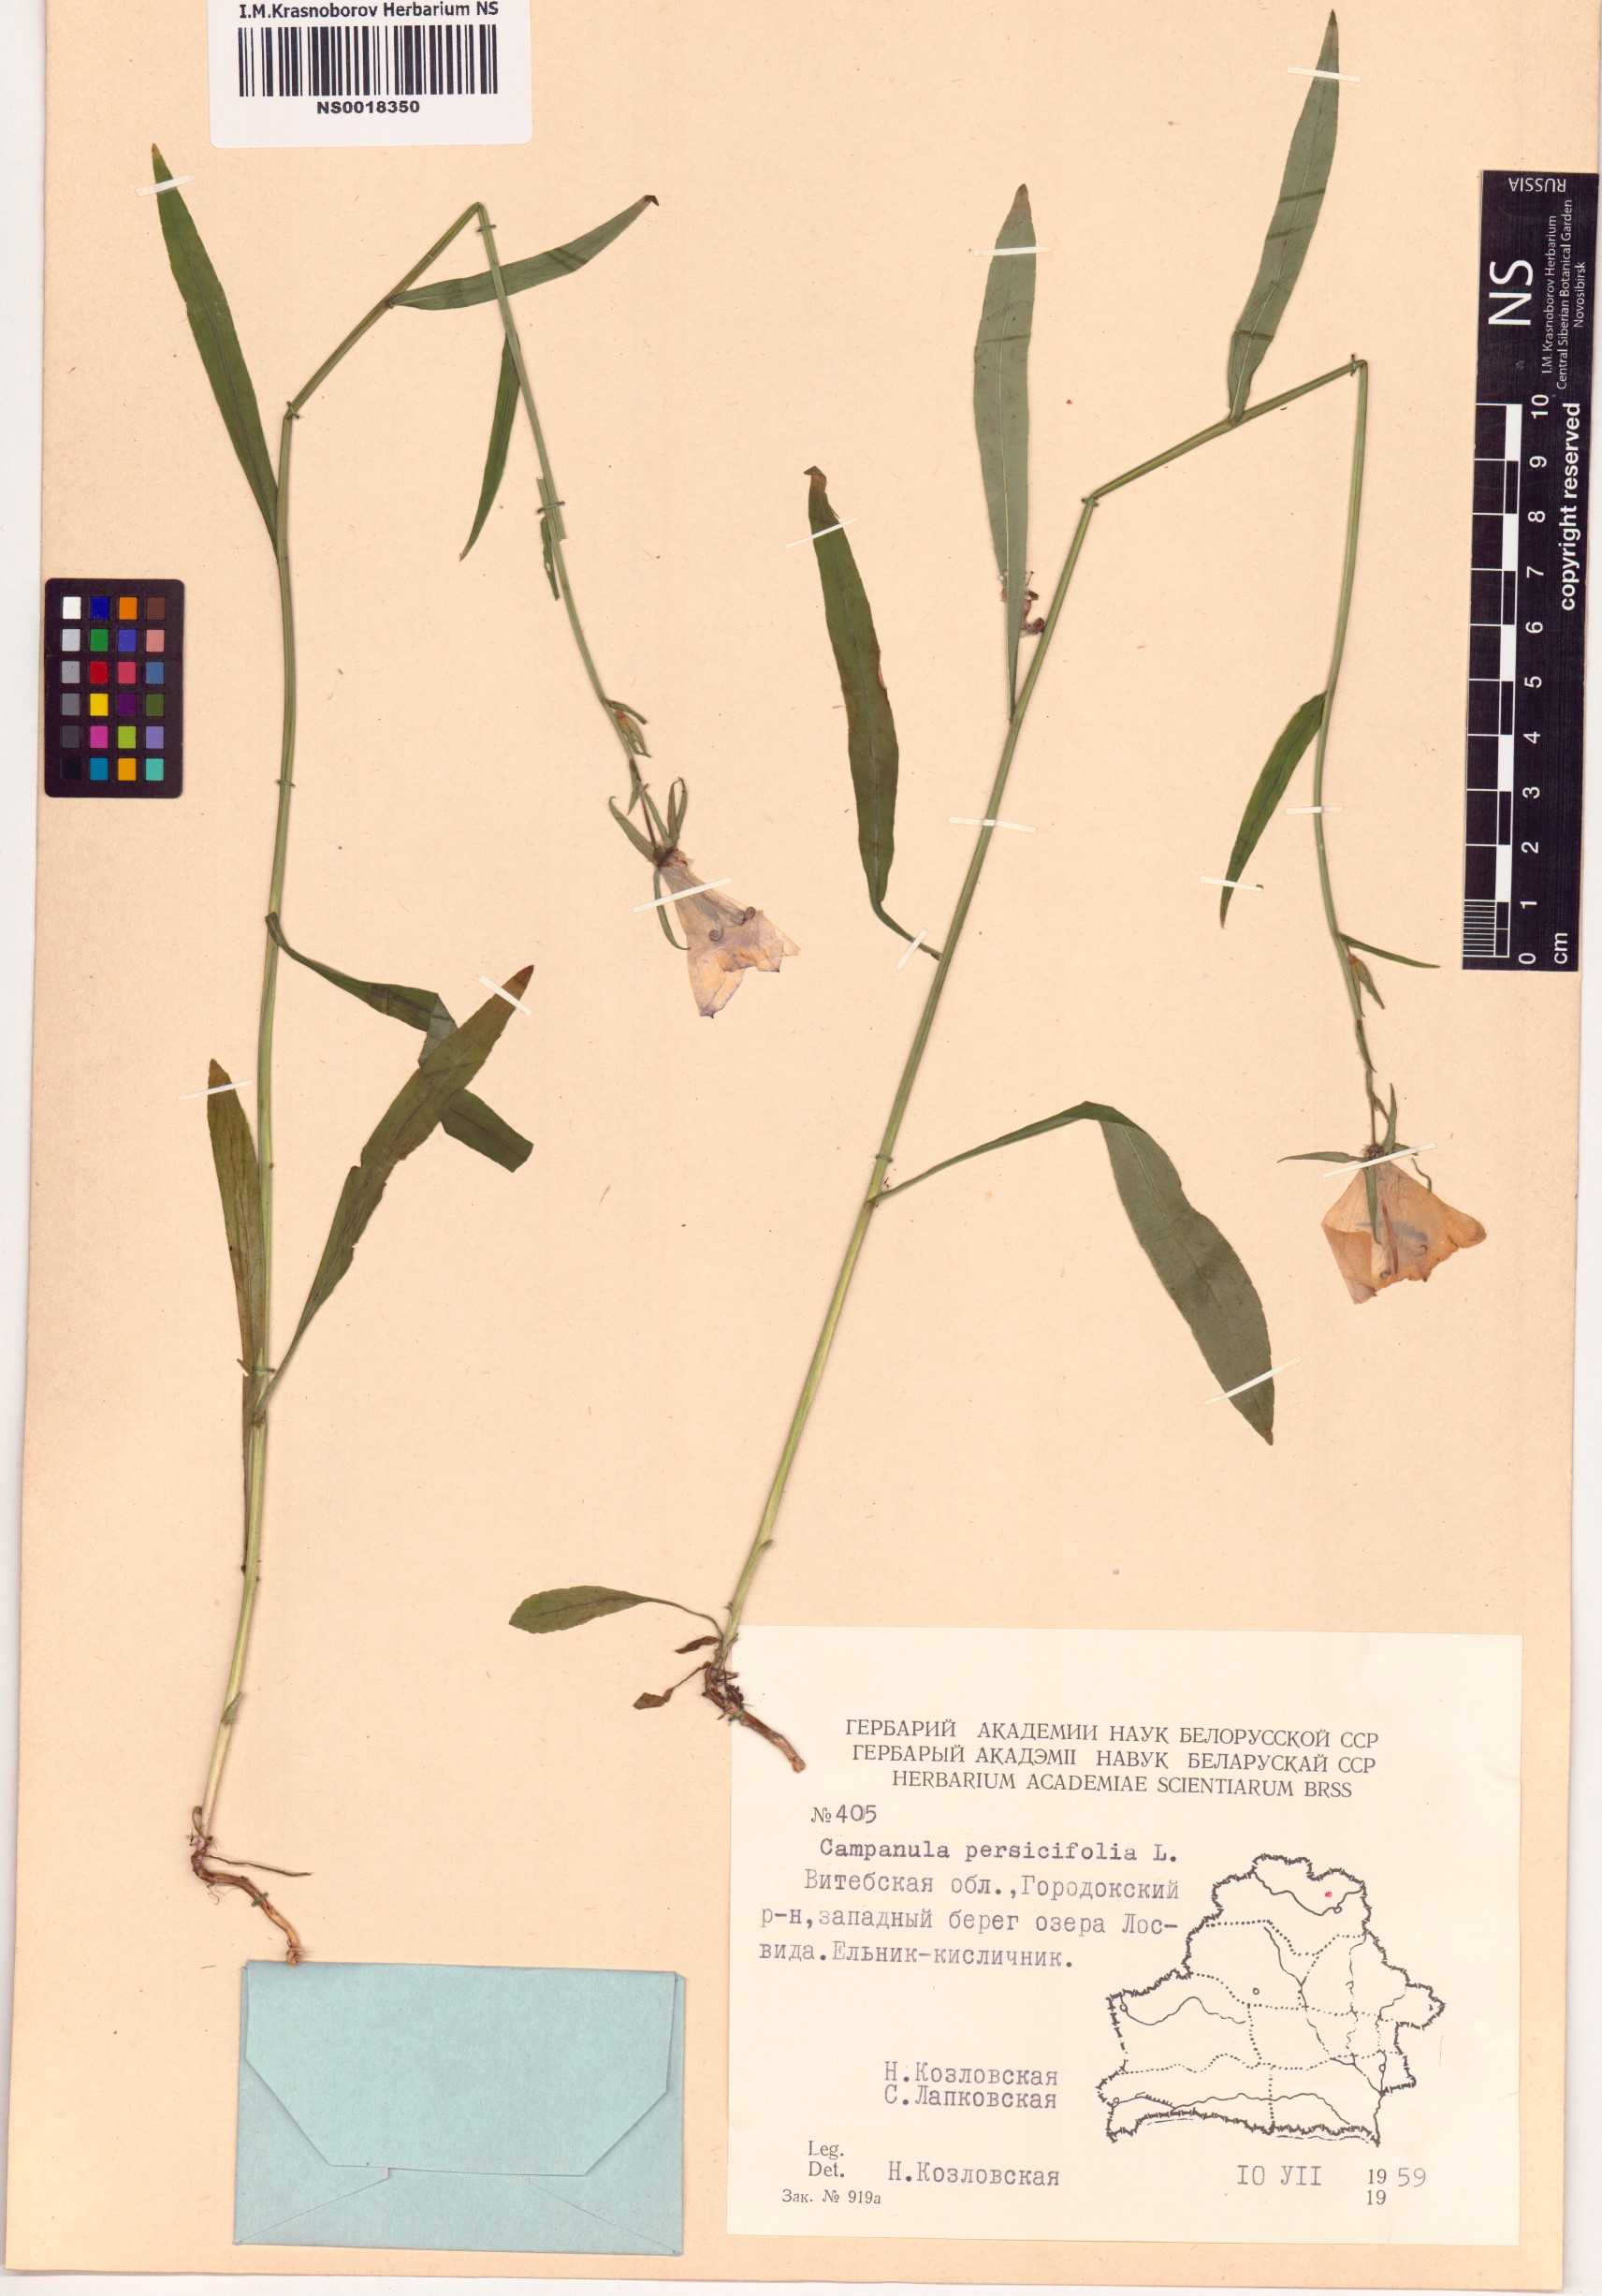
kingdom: Plantae
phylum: Tracheophyta
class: Magnoliopsida
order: Asterales
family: Campanulaceae
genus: Campanula
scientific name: Campanula persicifolia
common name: Peach-leaved bellflower
